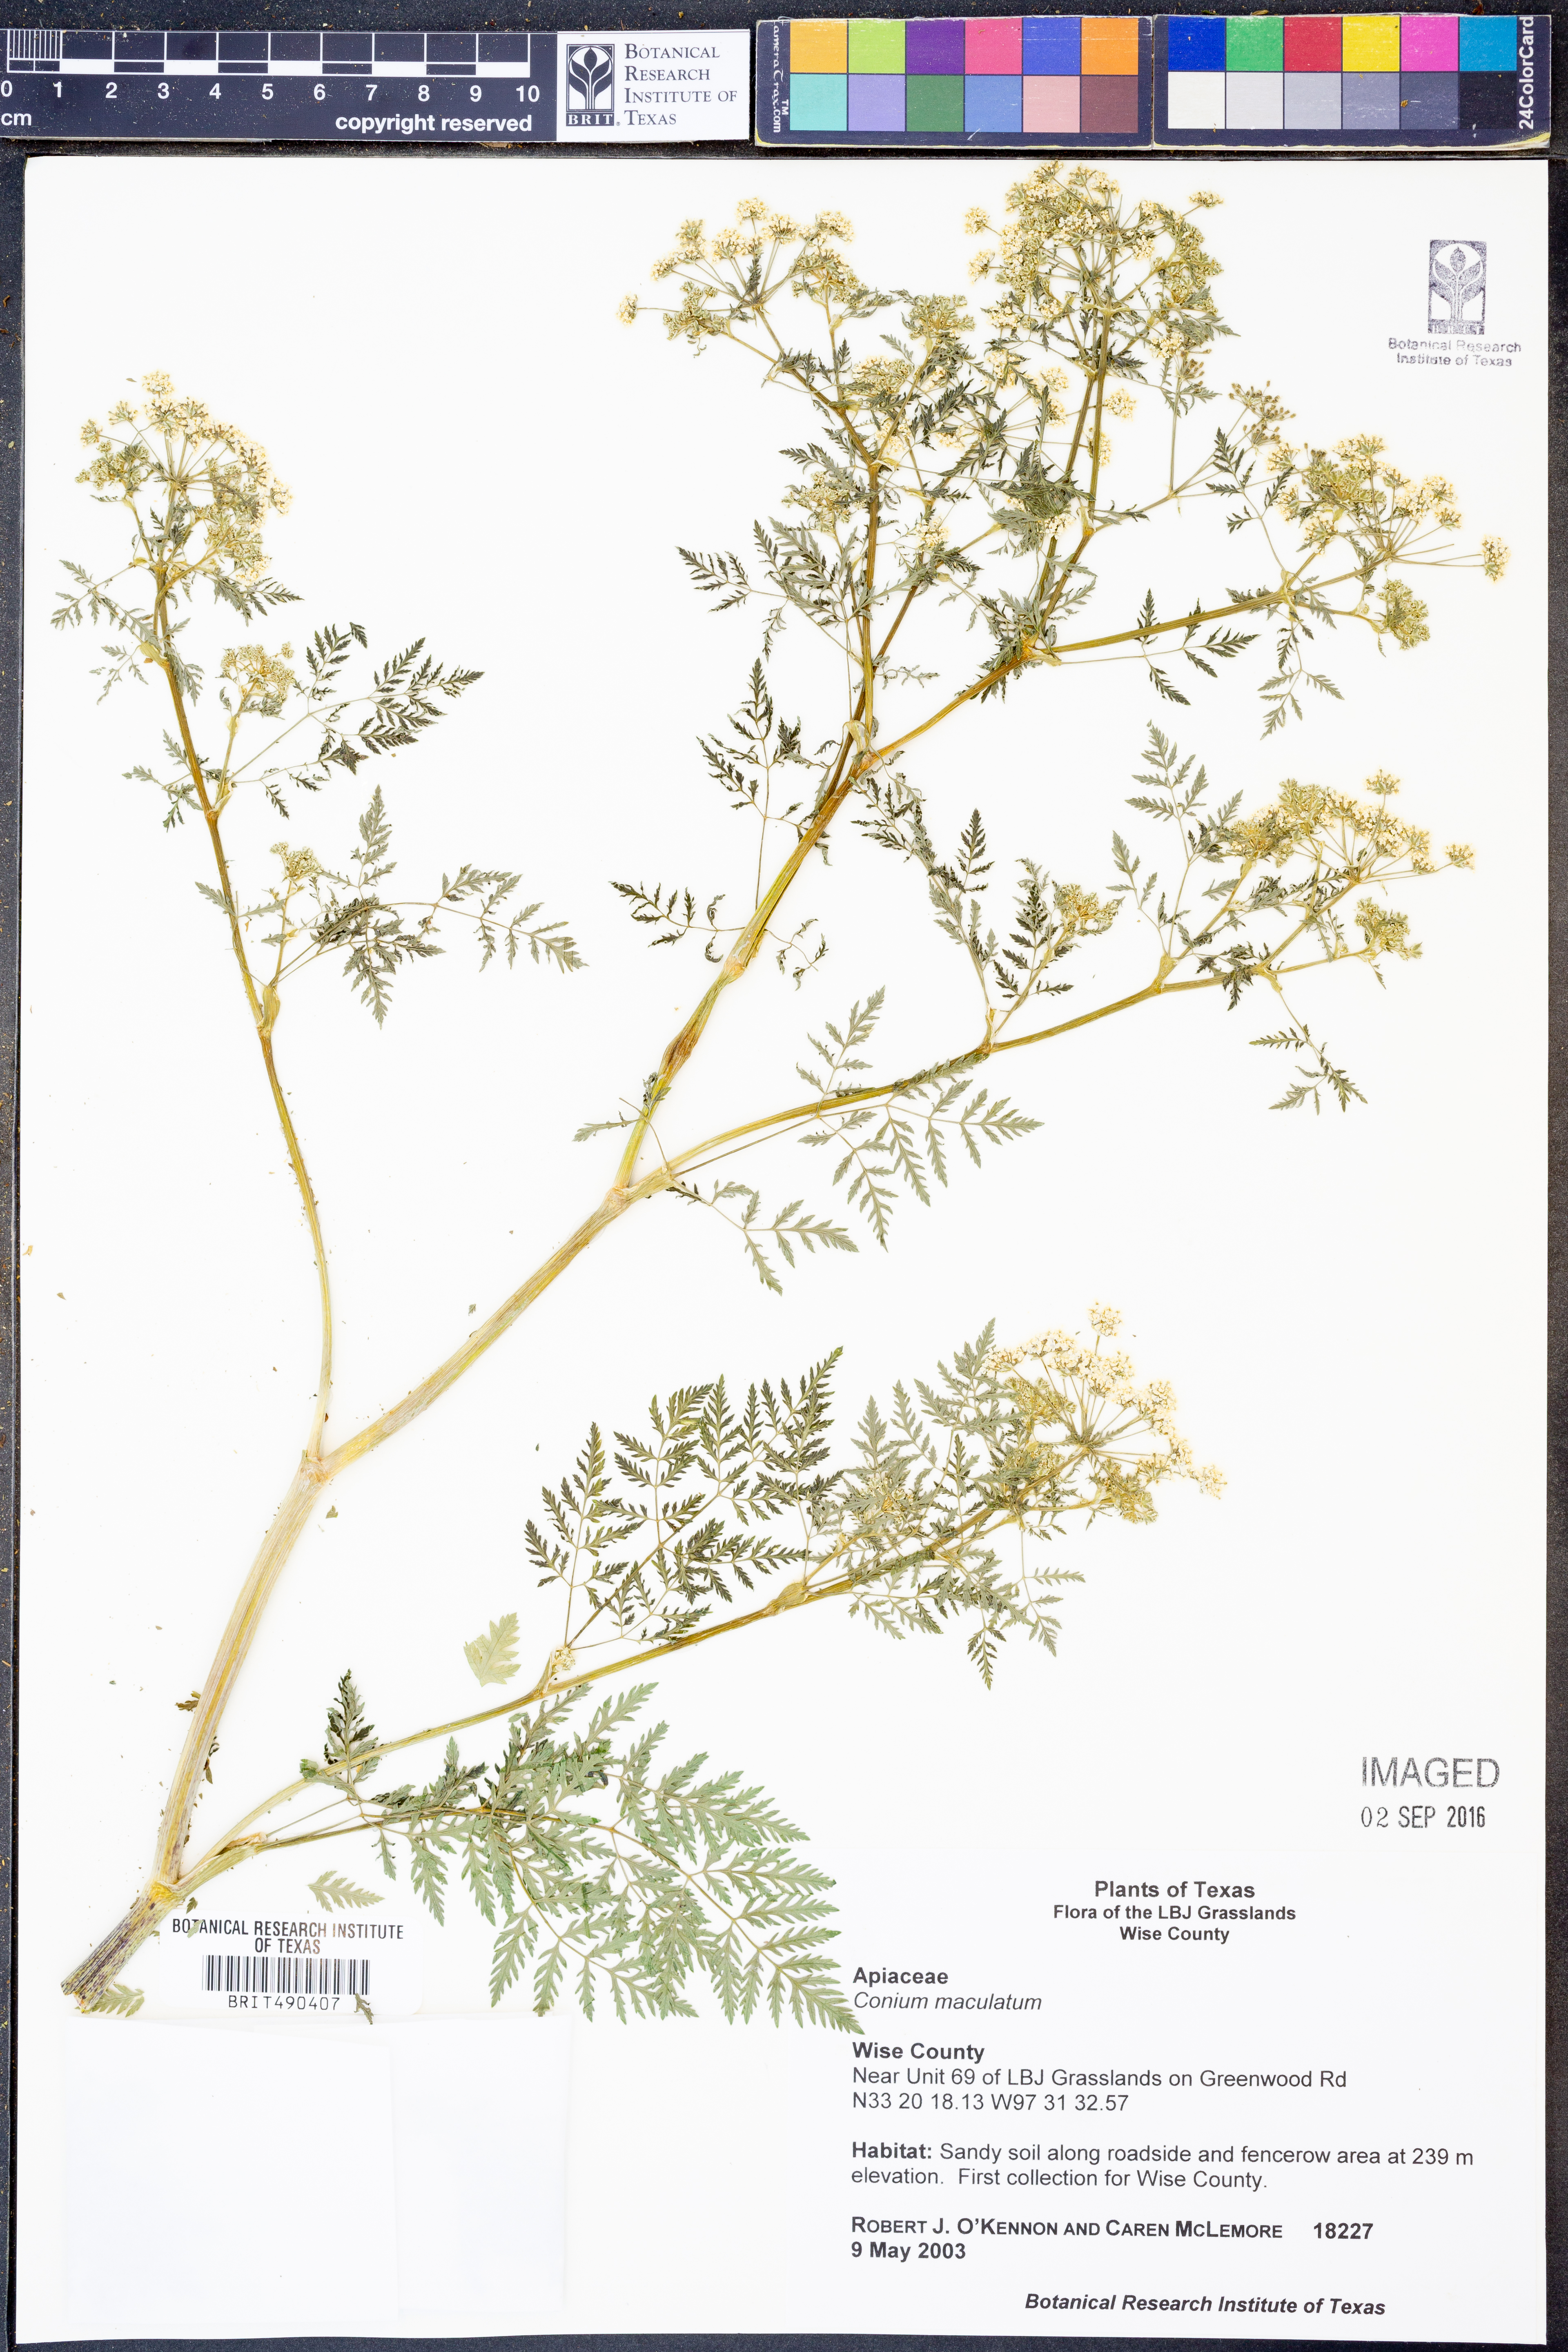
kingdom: Plantae
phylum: Tracheophyta
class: Magnoliopsida
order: Apiales
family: Apiaceae
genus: Conium
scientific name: Conium maculatum
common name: Hemlock
